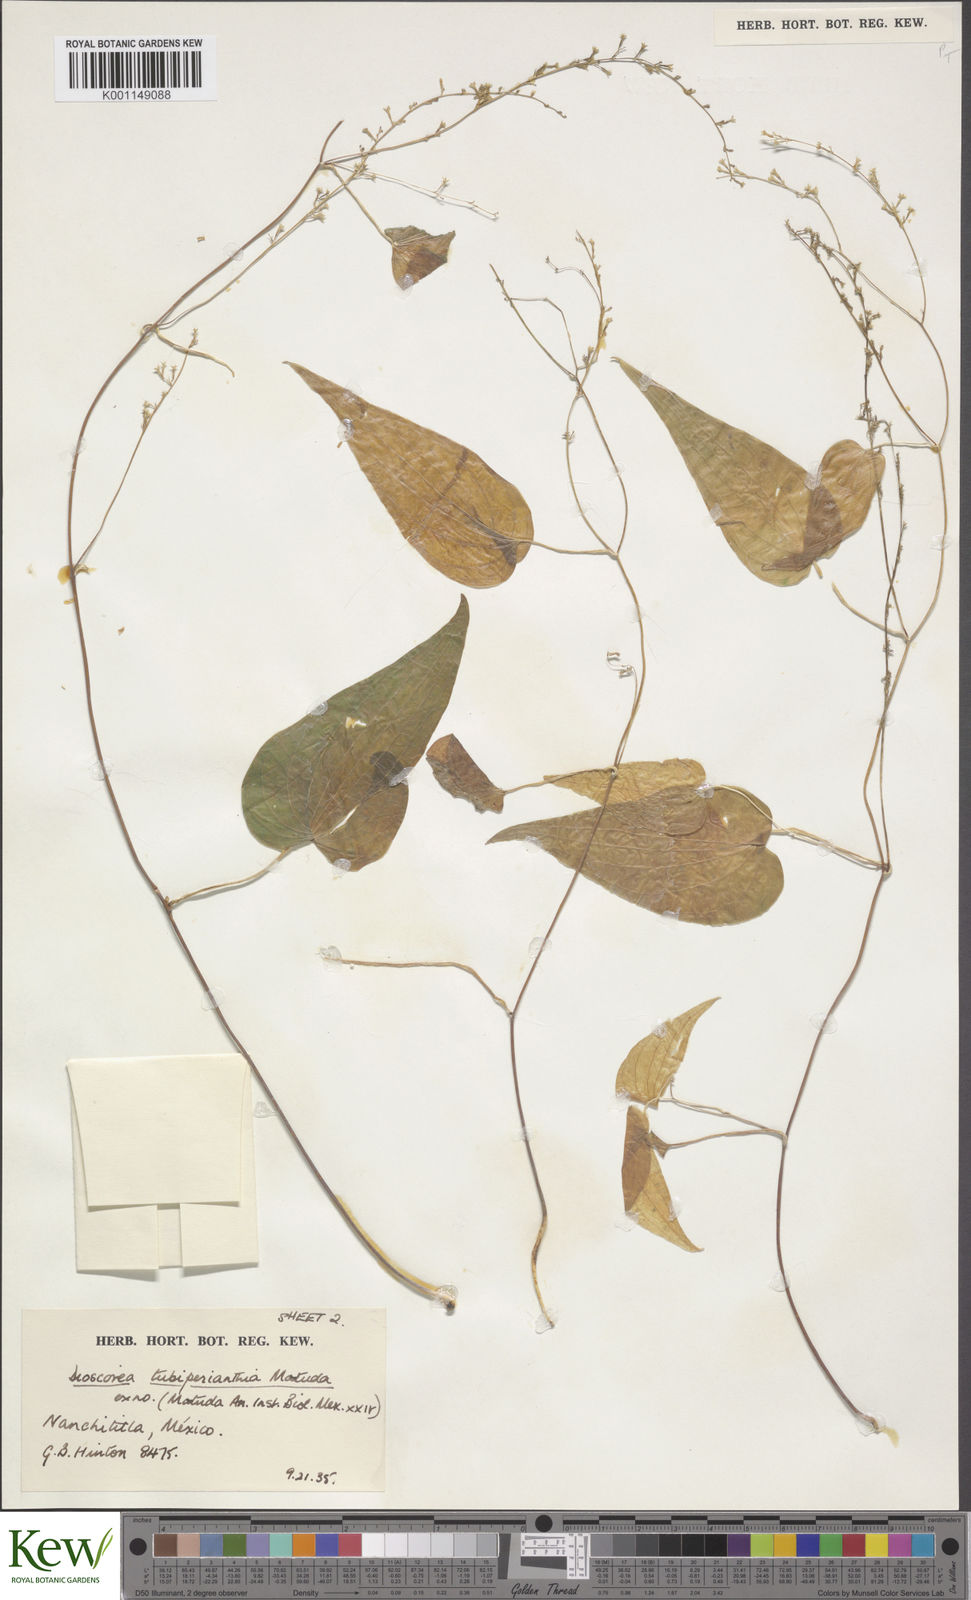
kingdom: Plantae
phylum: Tracheophyta
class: Liliopsida
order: Dioscoreales
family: Dioscoreaceae
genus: Dioscorea
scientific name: Dioscorea tubiperianthia
